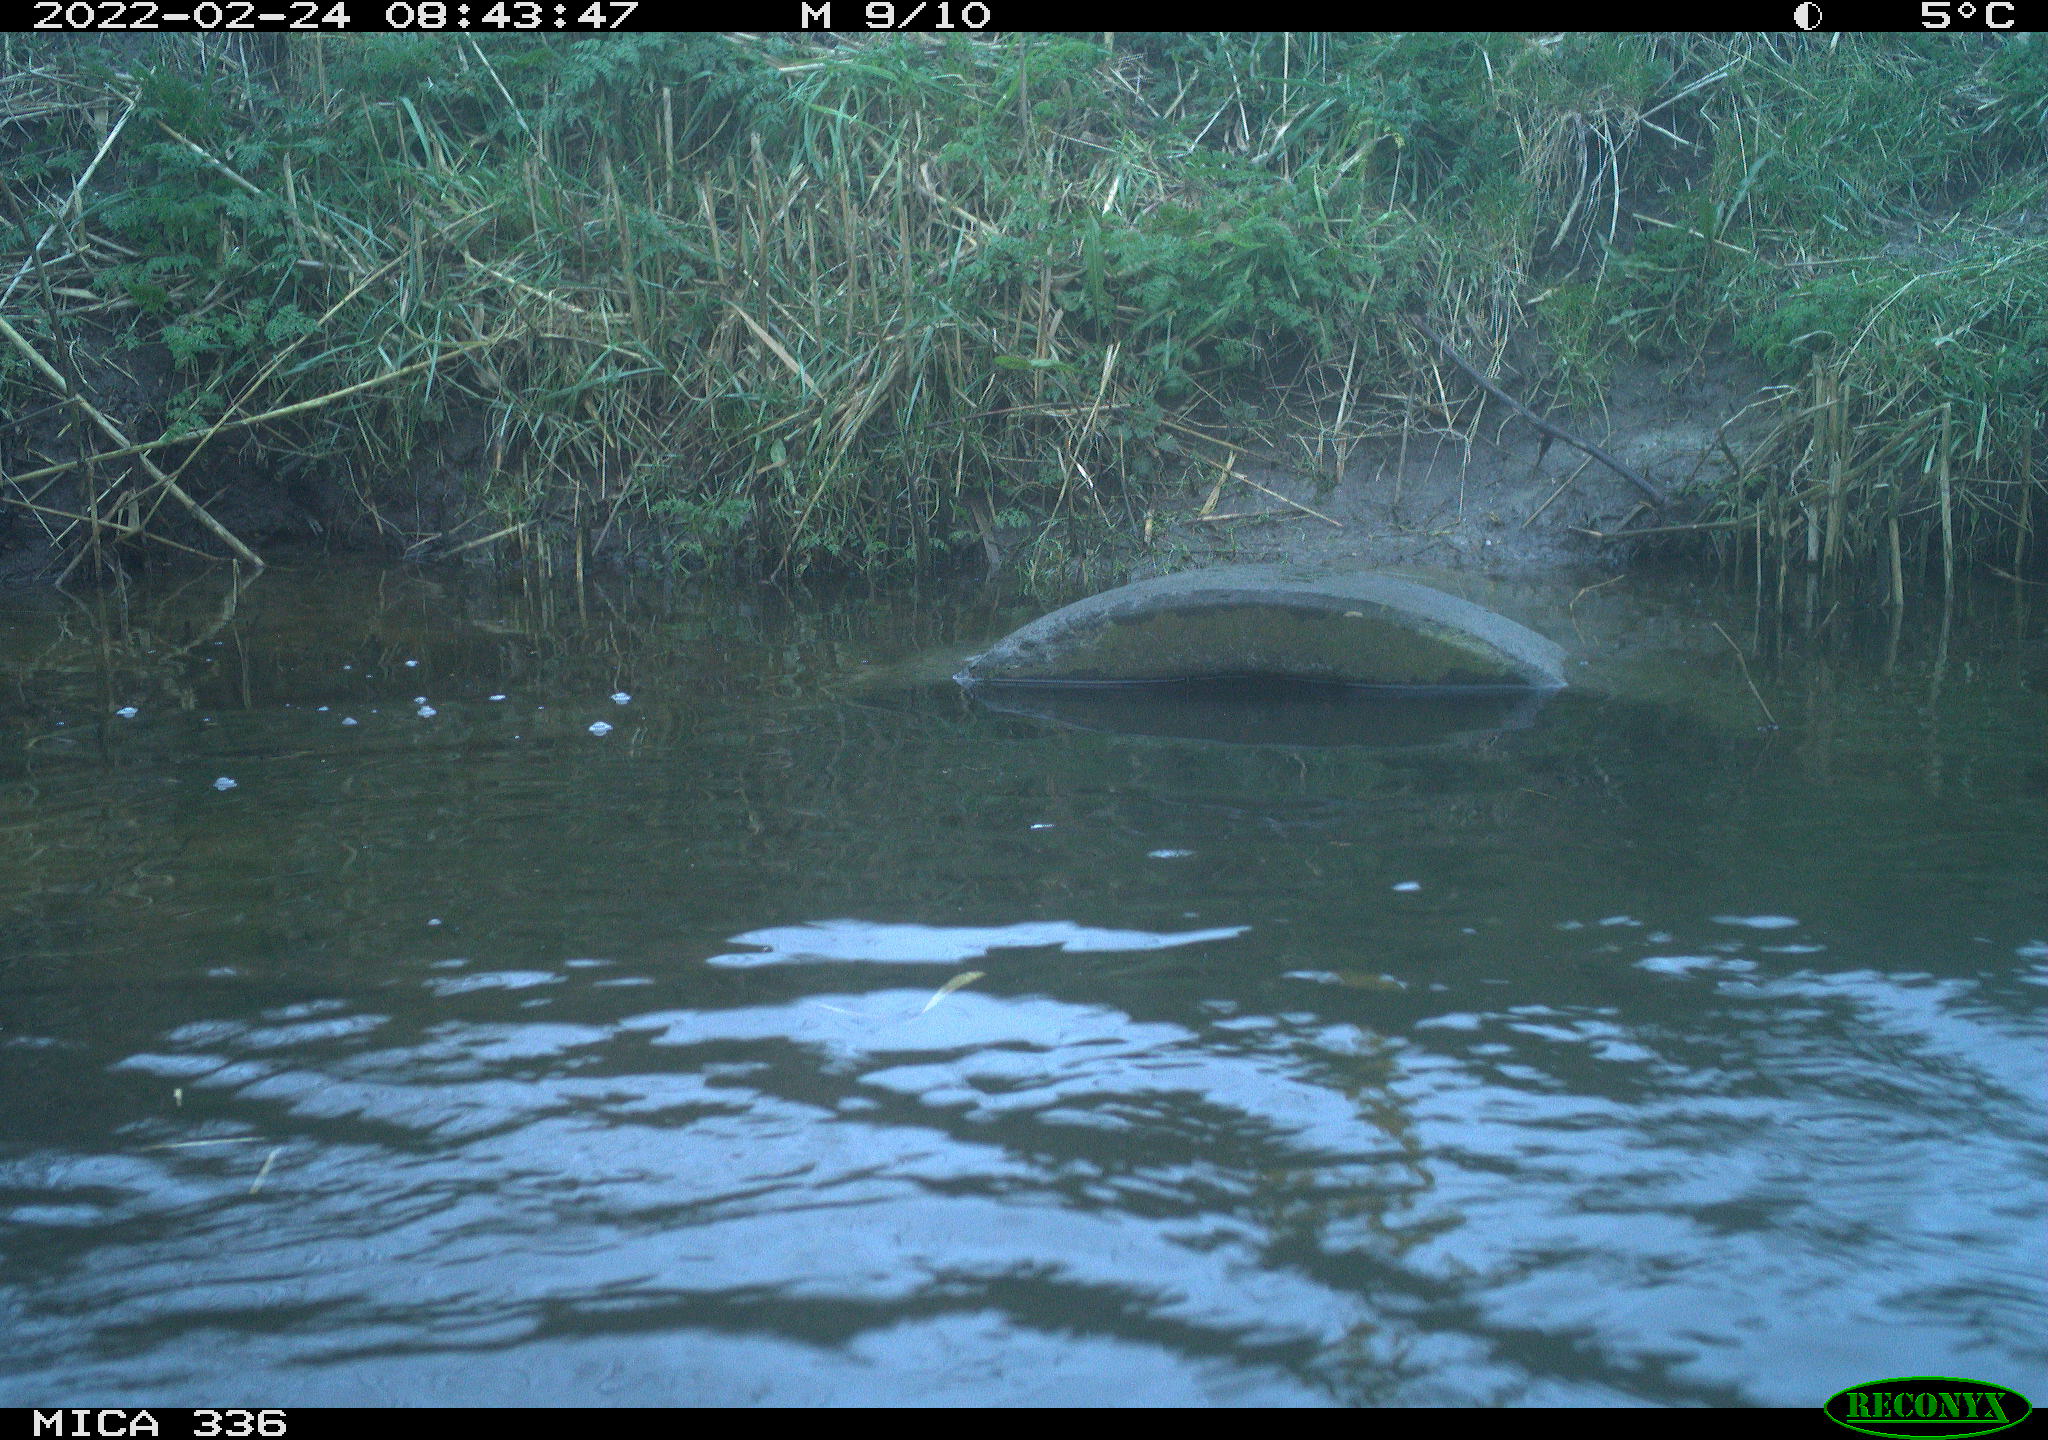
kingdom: Animalia
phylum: Chordata
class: Aves
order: Podicipediformes
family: Podicipedidae
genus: Podiceps
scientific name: Podiceps cristatus
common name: Great crested grebe
